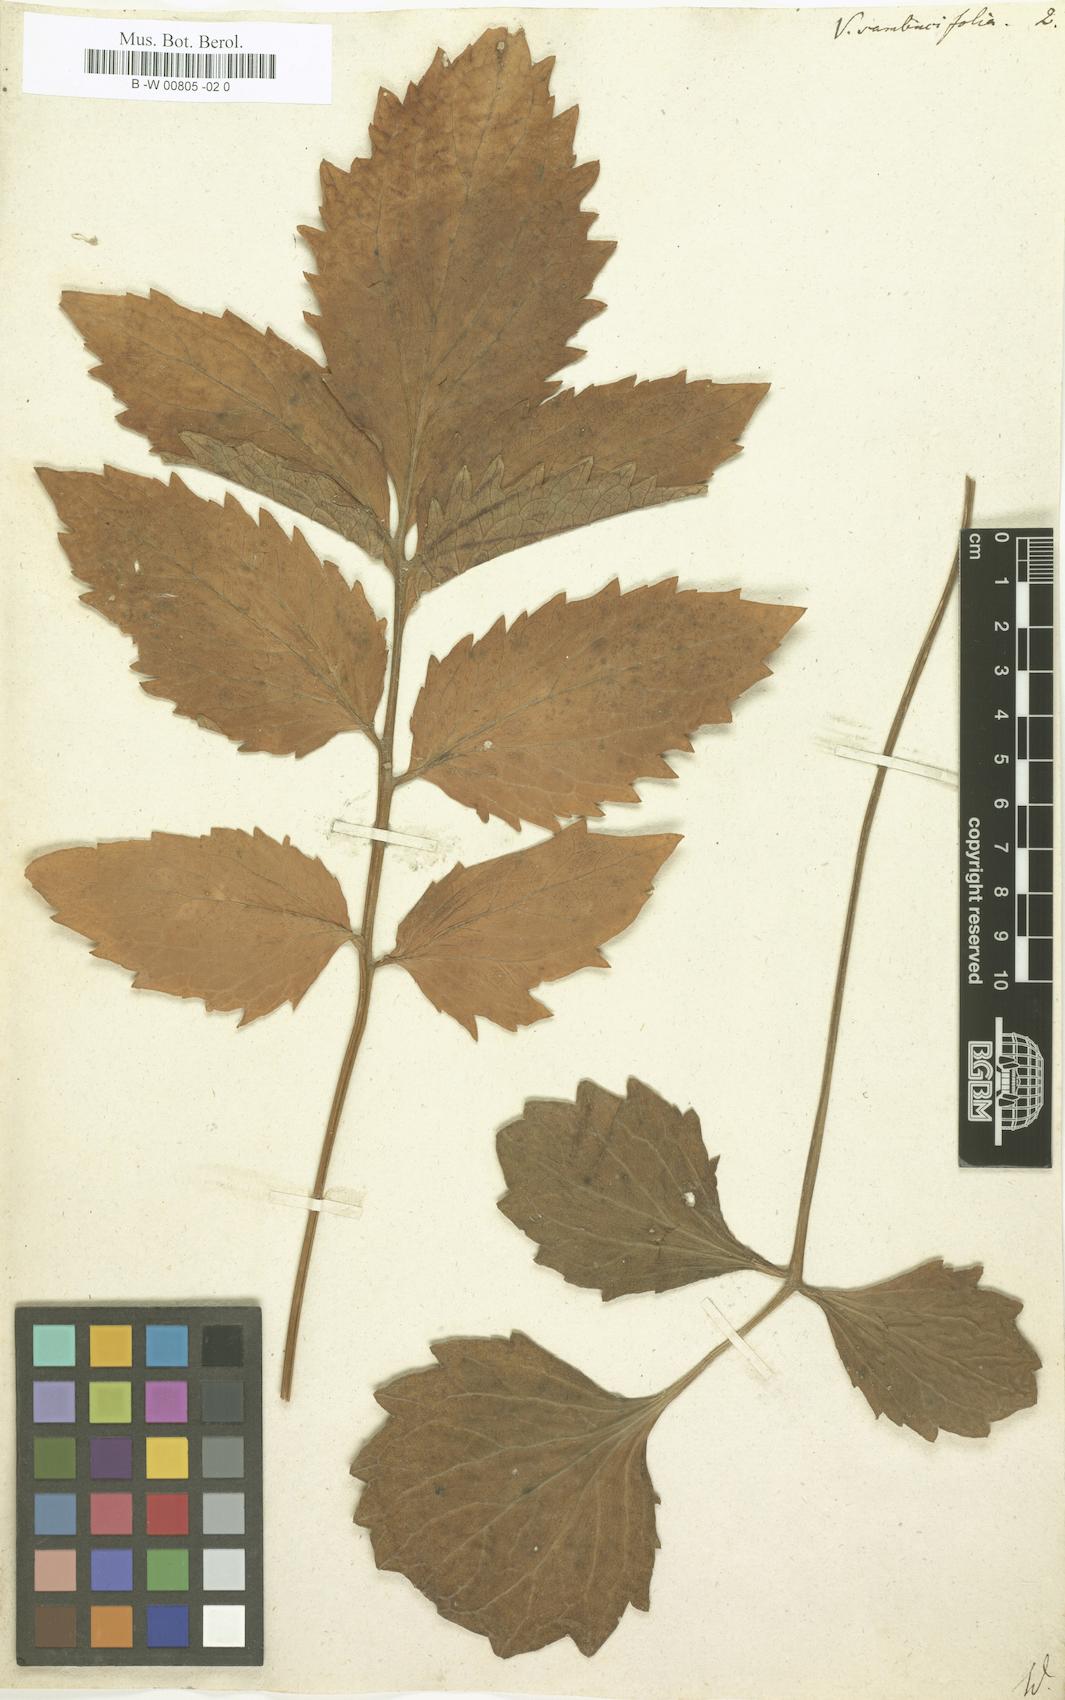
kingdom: Plantae
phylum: Tracheophyta
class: Magnoliopsida
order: Dipsacales
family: Caprifoliaceae
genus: Valeriana
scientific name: Valeriana sambucifolia
